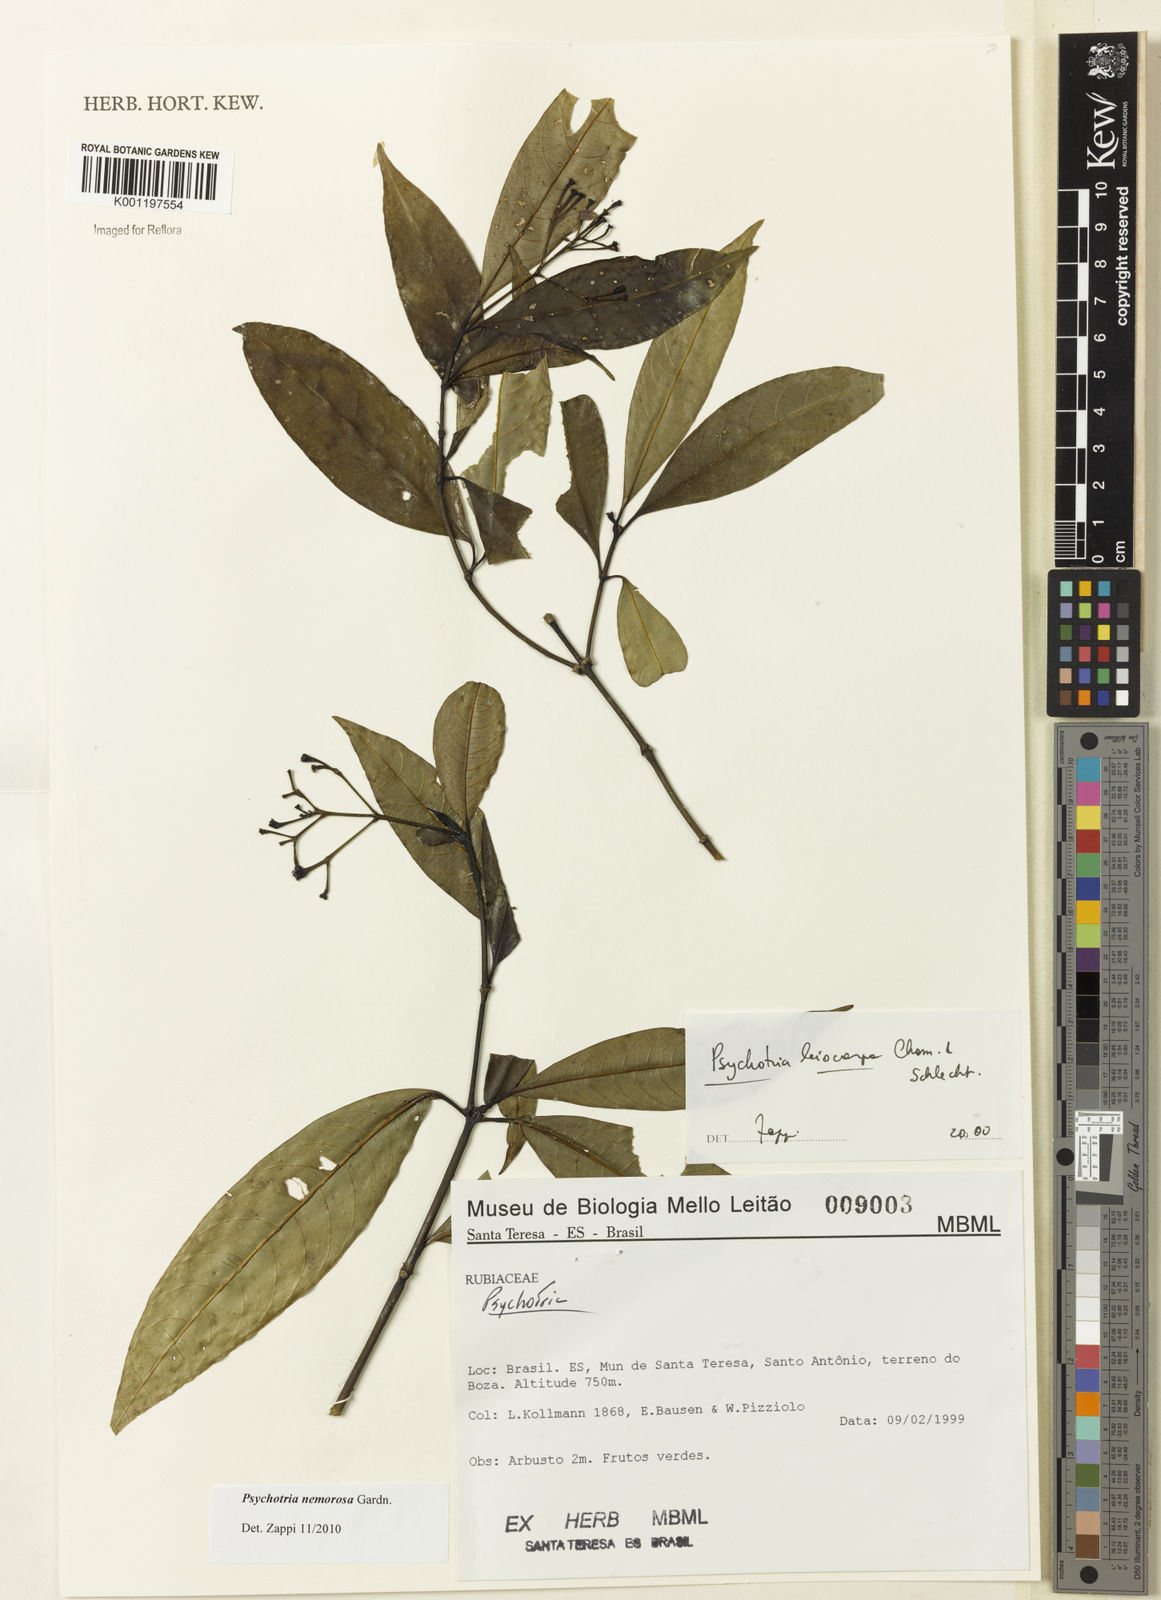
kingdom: Plantae
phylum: Tracheophyta
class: Magnoliopsida
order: Gentianales
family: Rubiaceae
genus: Psychotria
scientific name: Psychotria nemorosa
